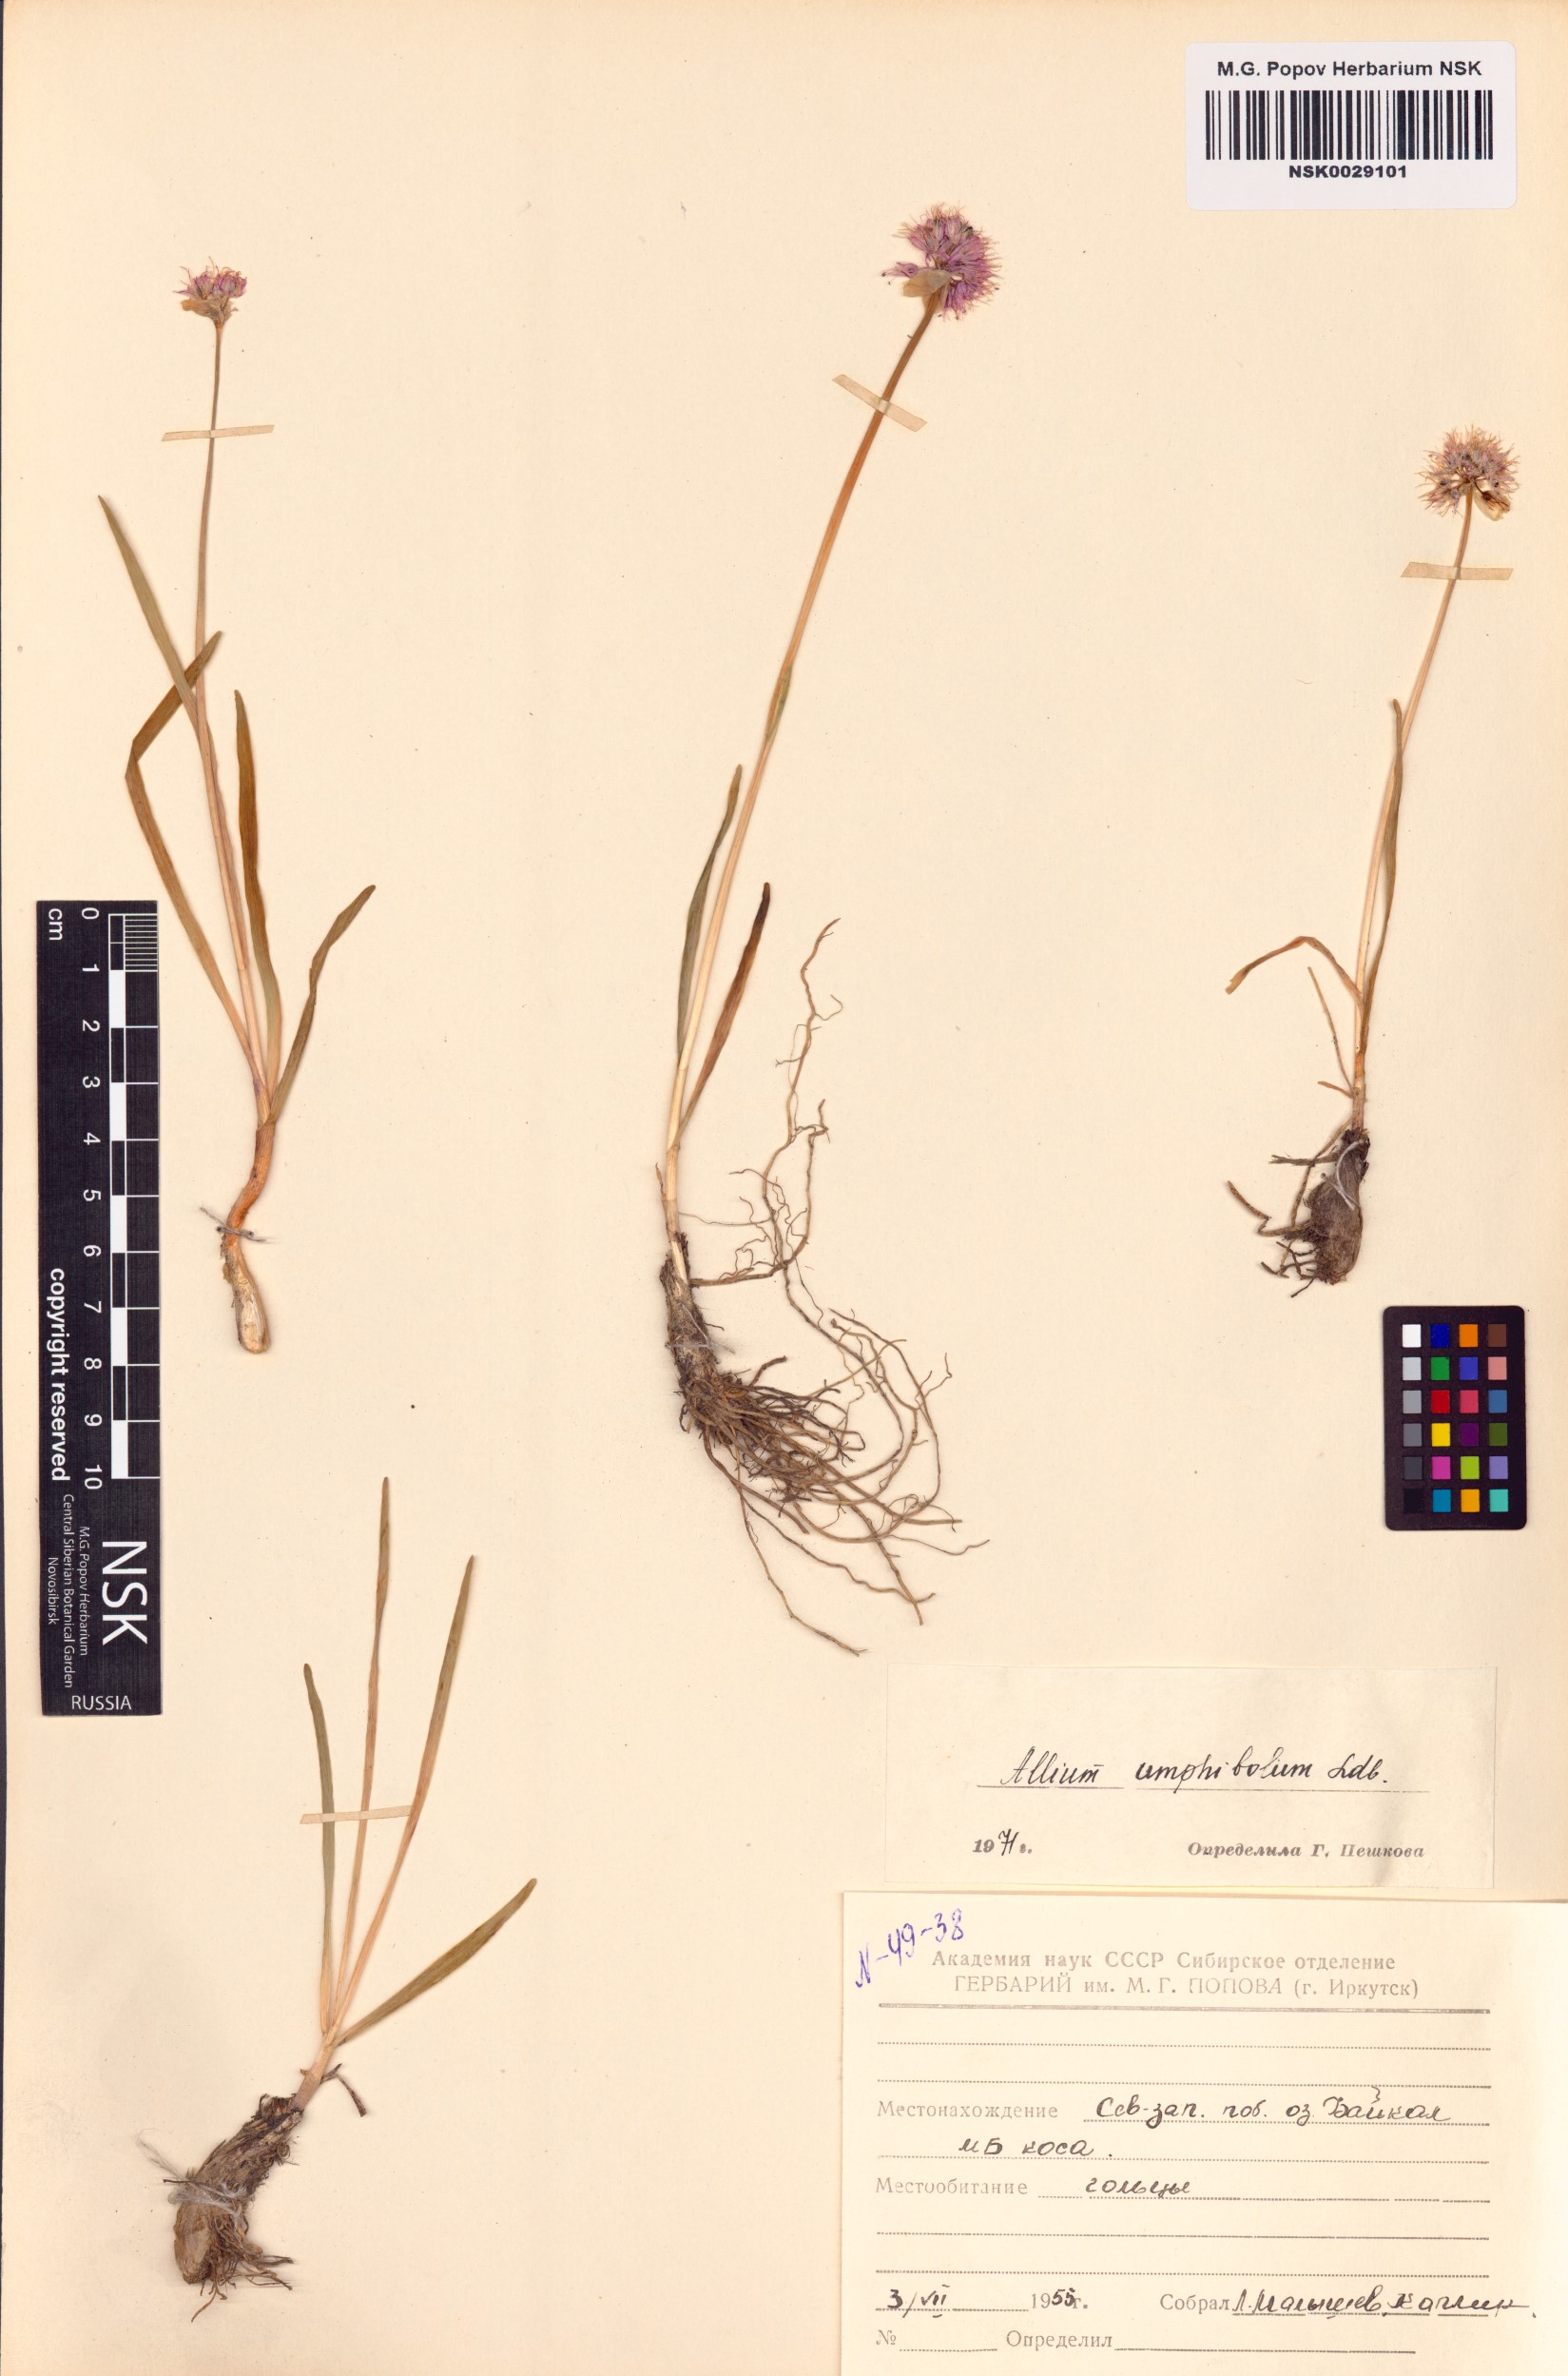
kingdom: Plantae
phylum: Tracheophyta
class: Liliopsida
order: Asparagales
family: Amaryllidaceae
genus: Allium
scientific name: Allium amphibolum
